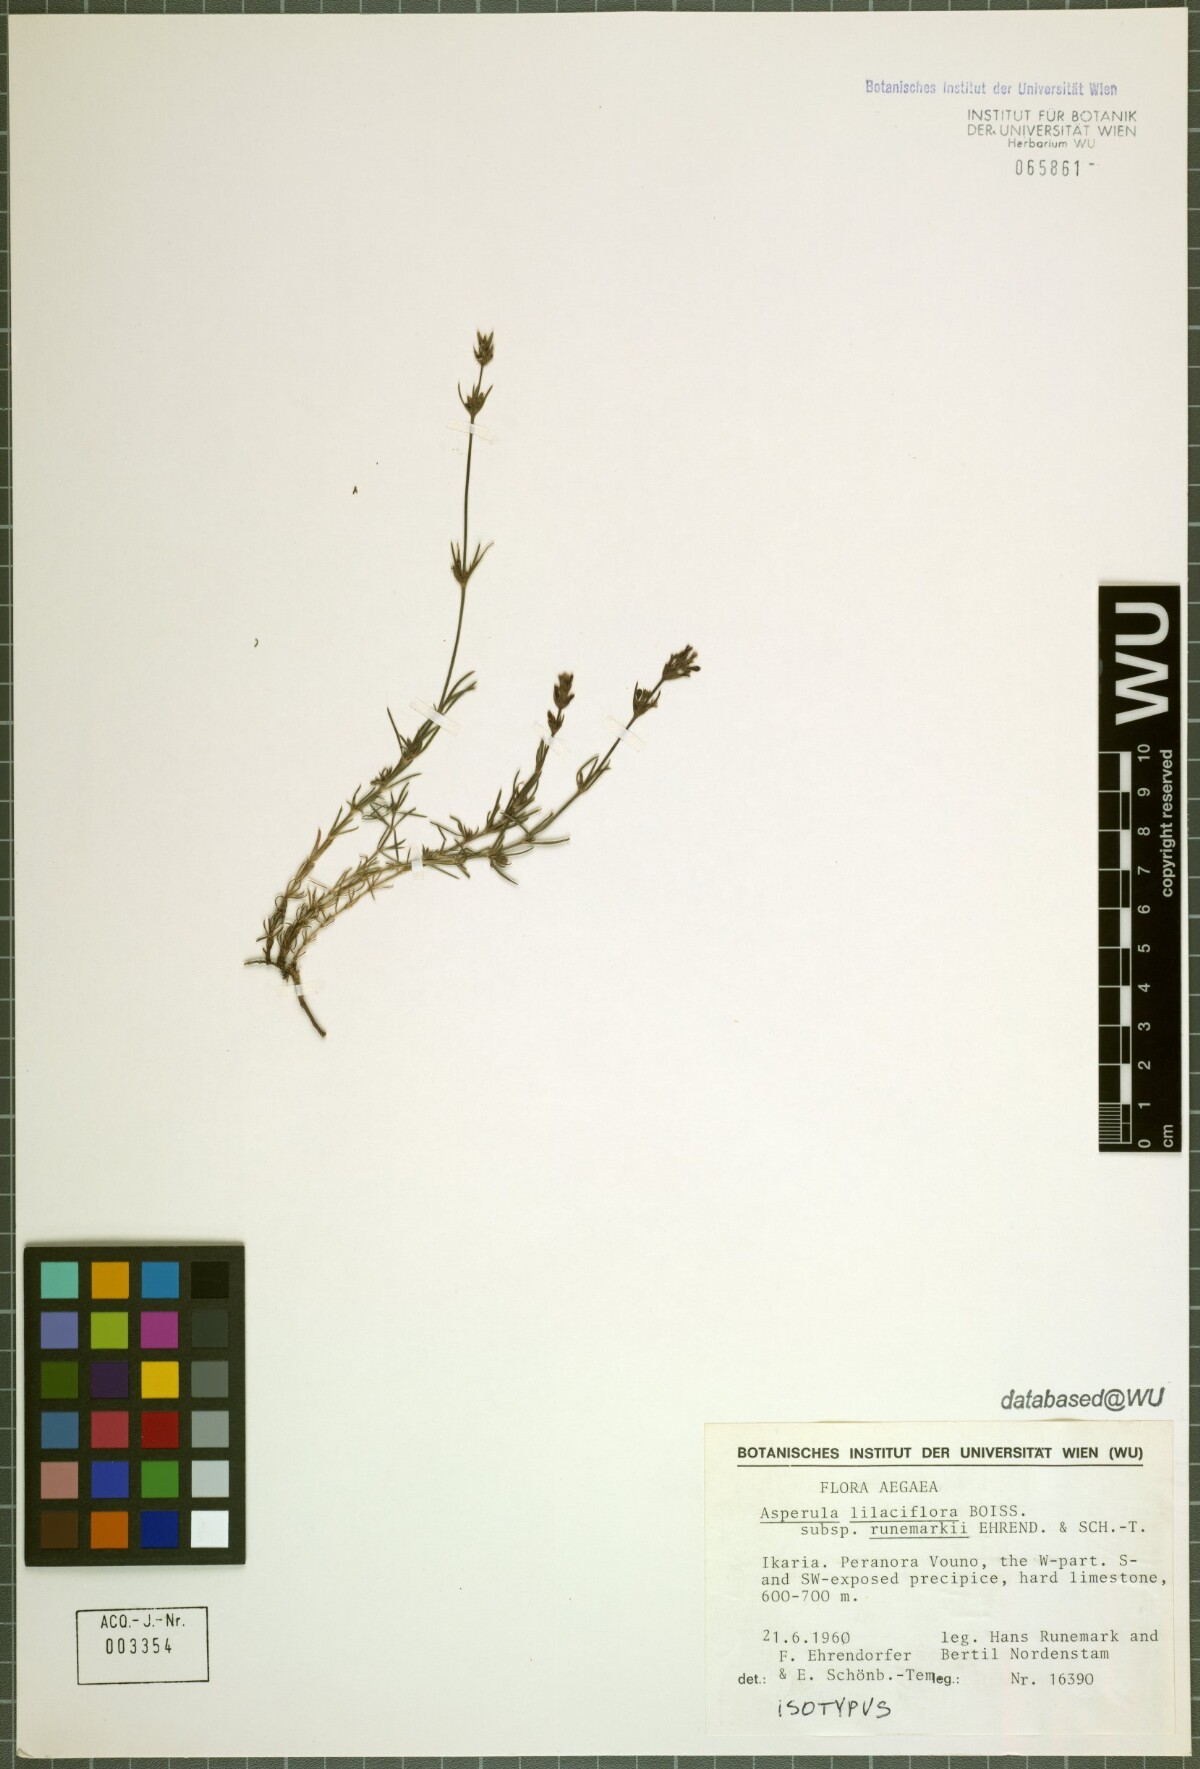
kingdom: Plantae
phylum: Tracheophyta
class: Magnoliopsida
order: Gentianales
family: Rubiaceae
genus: Cynanchica
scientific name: Cynanchica lilaciflora
